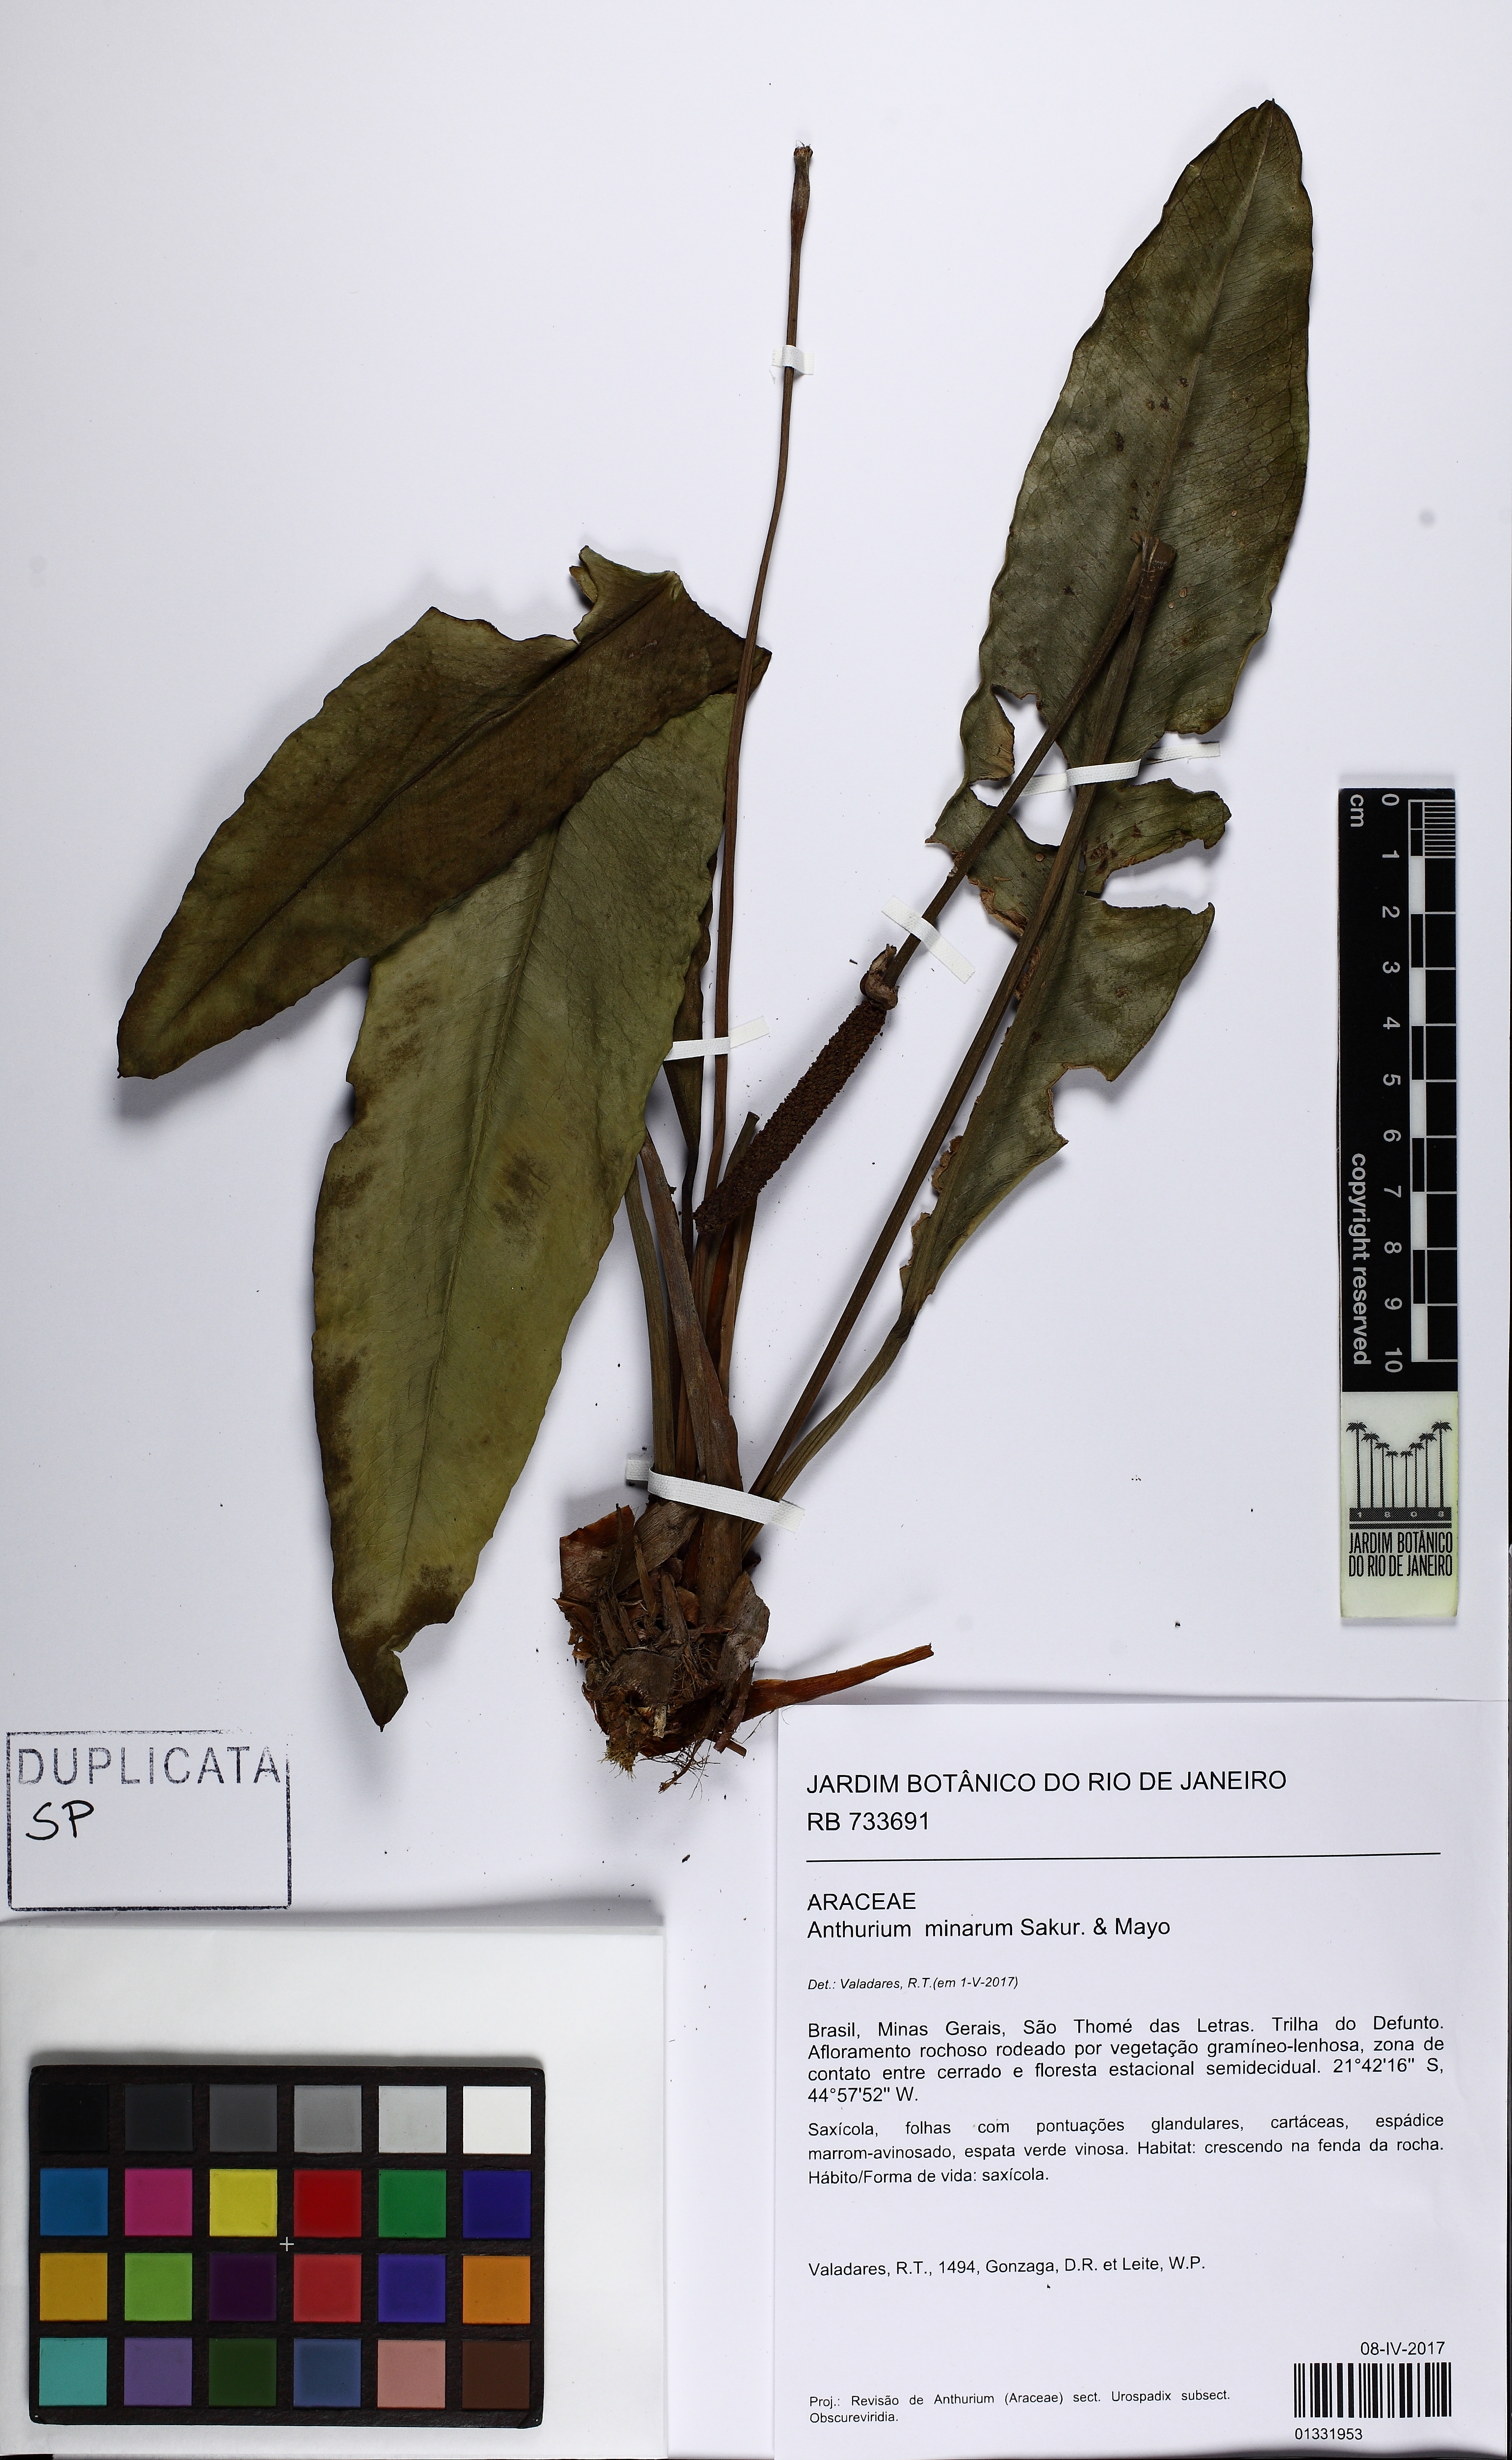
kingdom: Plantae
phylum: Tracheophyta
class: Liliopsida
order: Alismatales
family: Araceae
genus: Anthurium
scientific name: Anthurium minarum
